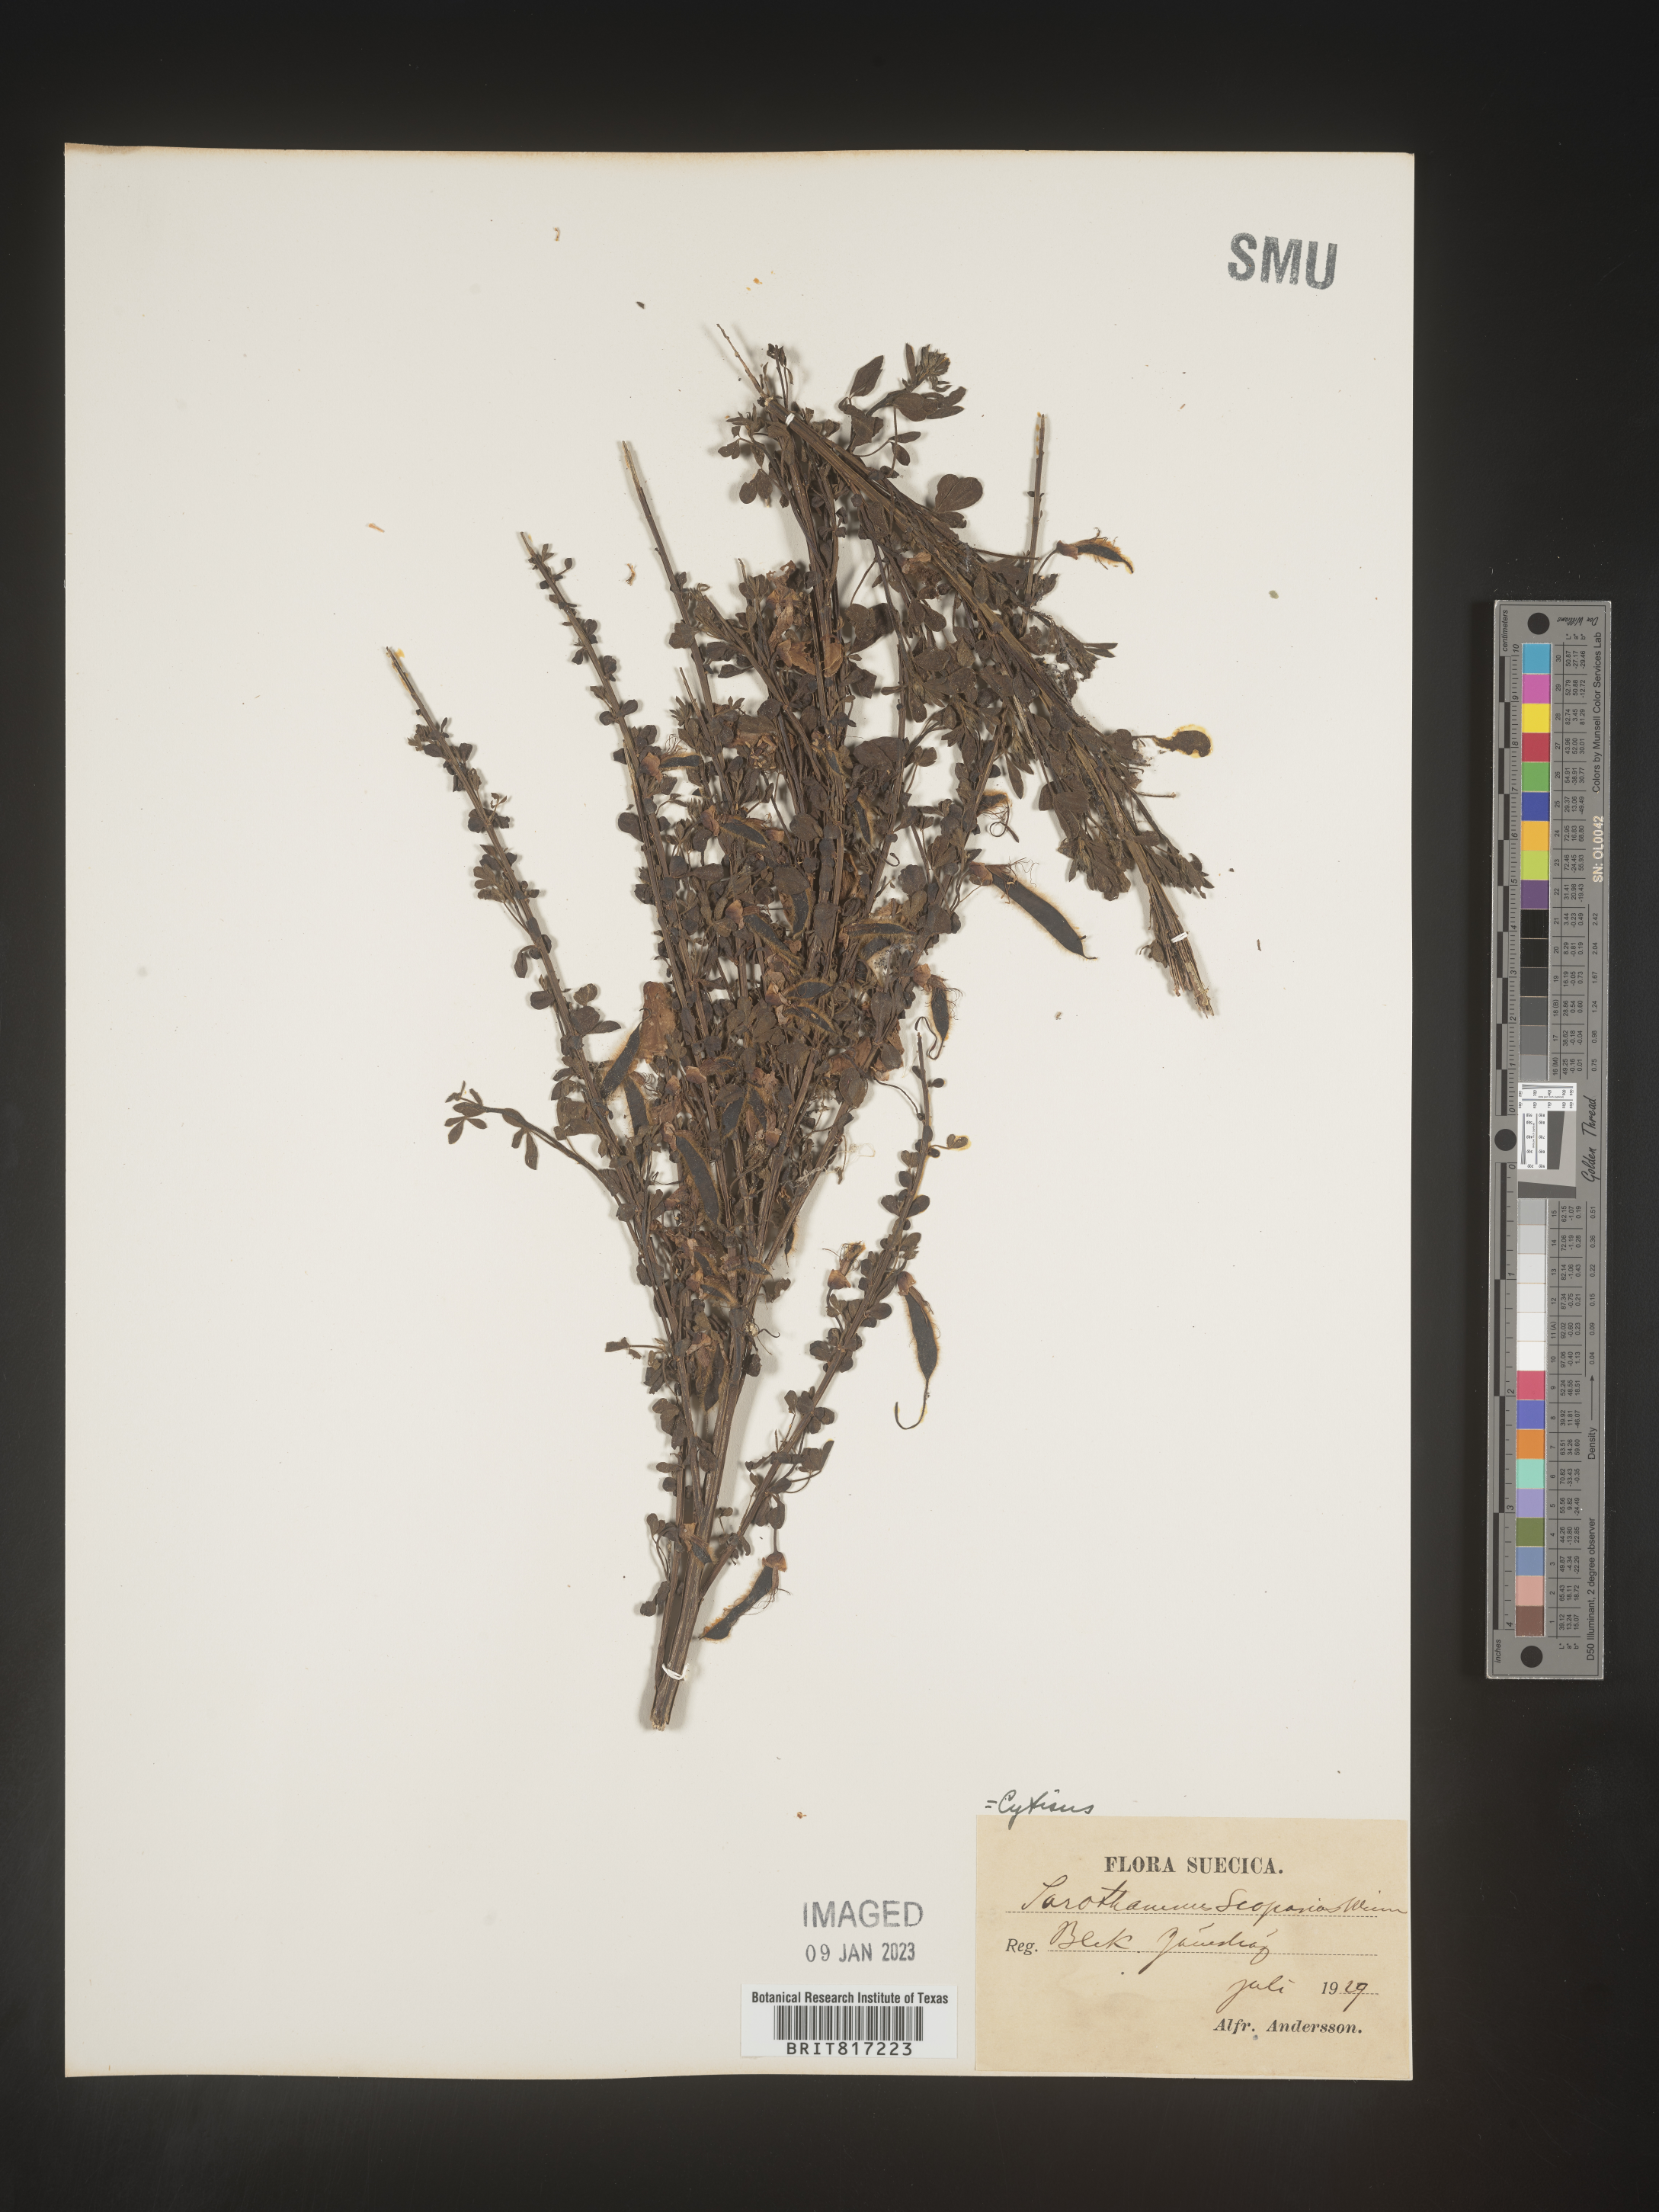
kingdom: Plantae
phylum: Tracheophyta
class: Magnoliopsida
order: Fabales
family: Fabaceae
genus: Cytisus
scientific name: Cytisus scoparius
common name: Scotch broom
